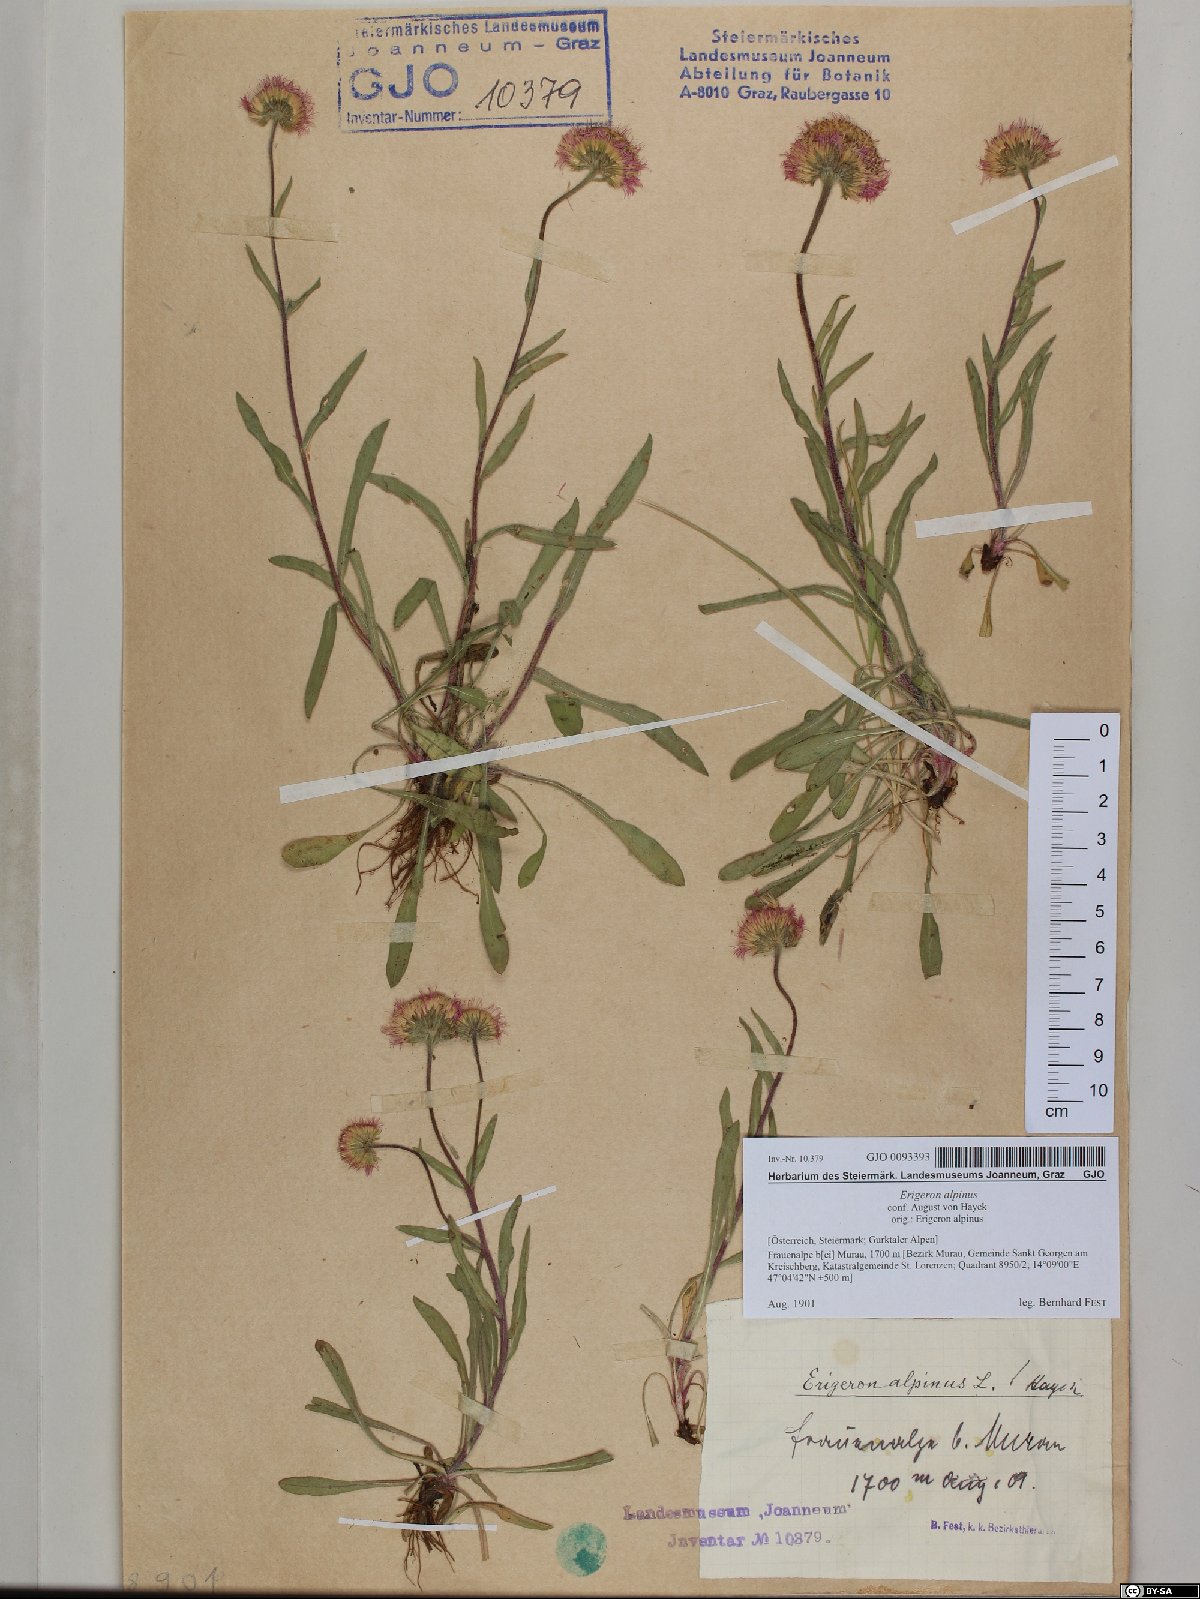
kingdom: Plantae
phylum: Tracheophyta
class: Magnoliopsida
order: Asterales
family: Asteraceae
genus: Erigeron
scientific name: Erigeron alpinus
